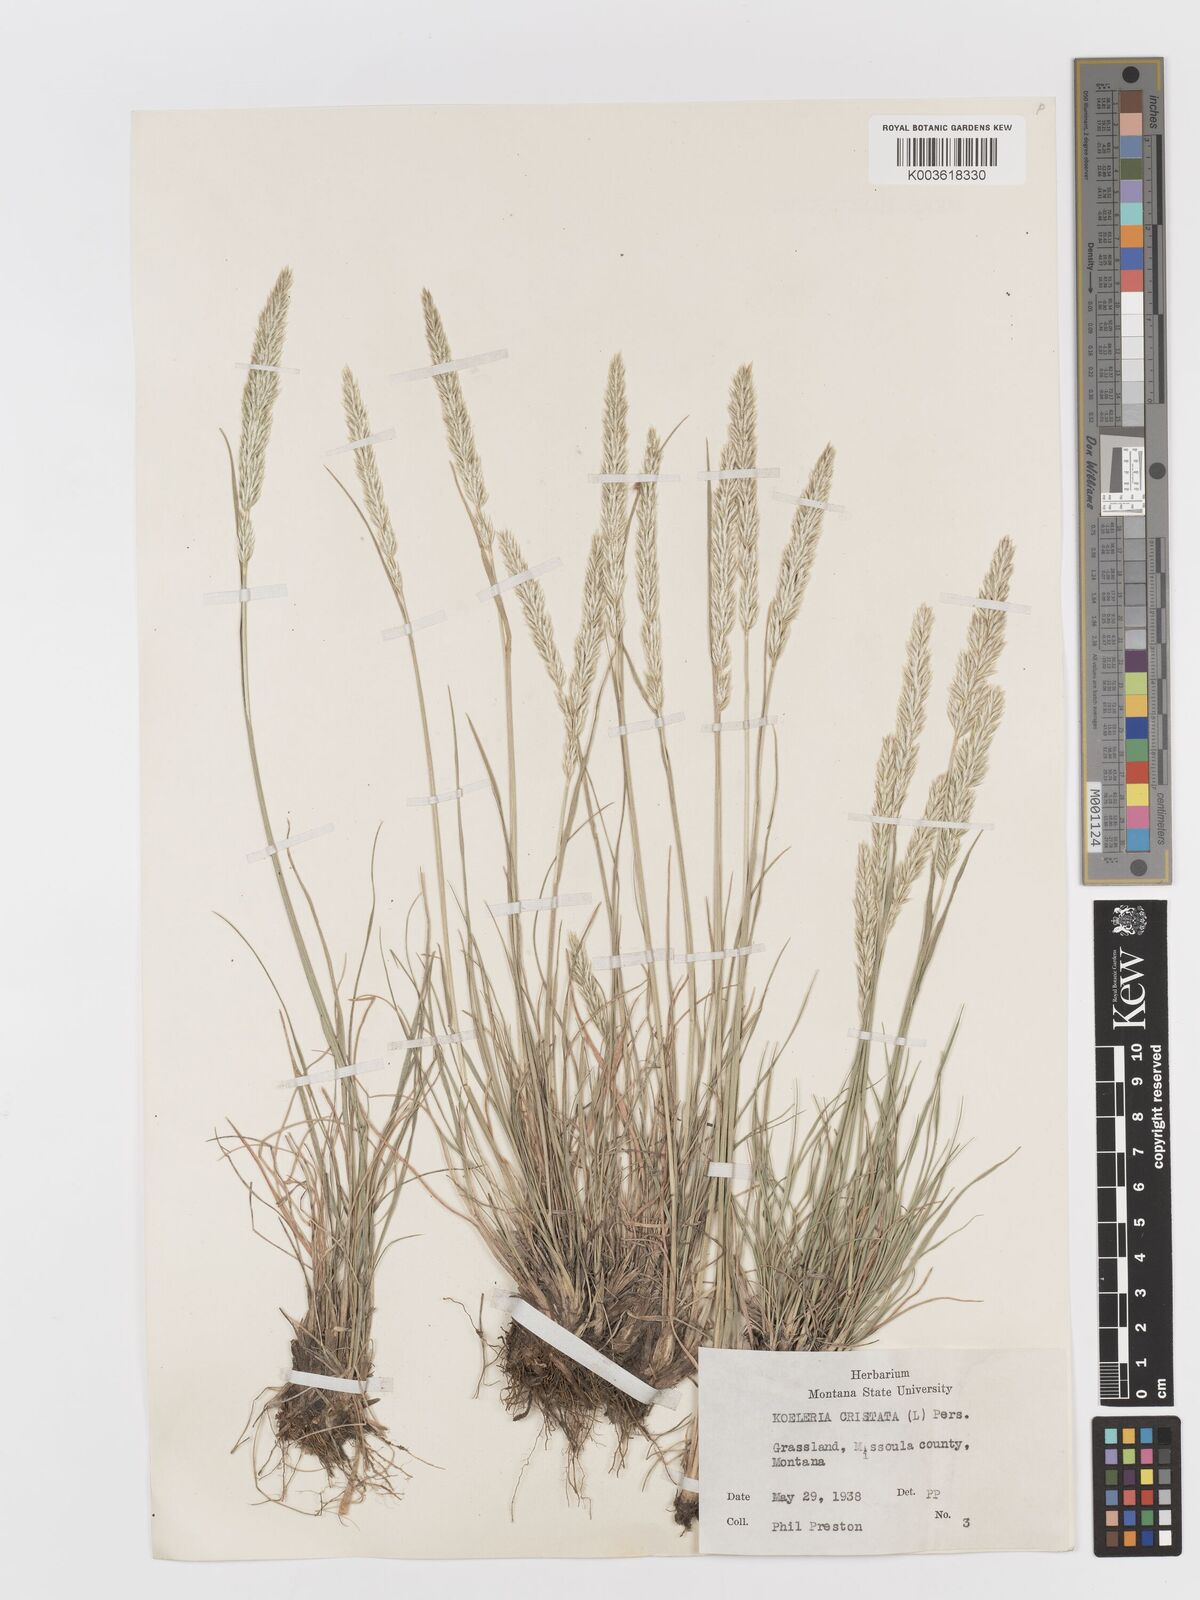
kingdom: Plantae
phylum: Tracheophyta
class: Liliopsida
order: Poales
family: Poaceae
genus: Koeleria
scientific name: Koeleria
